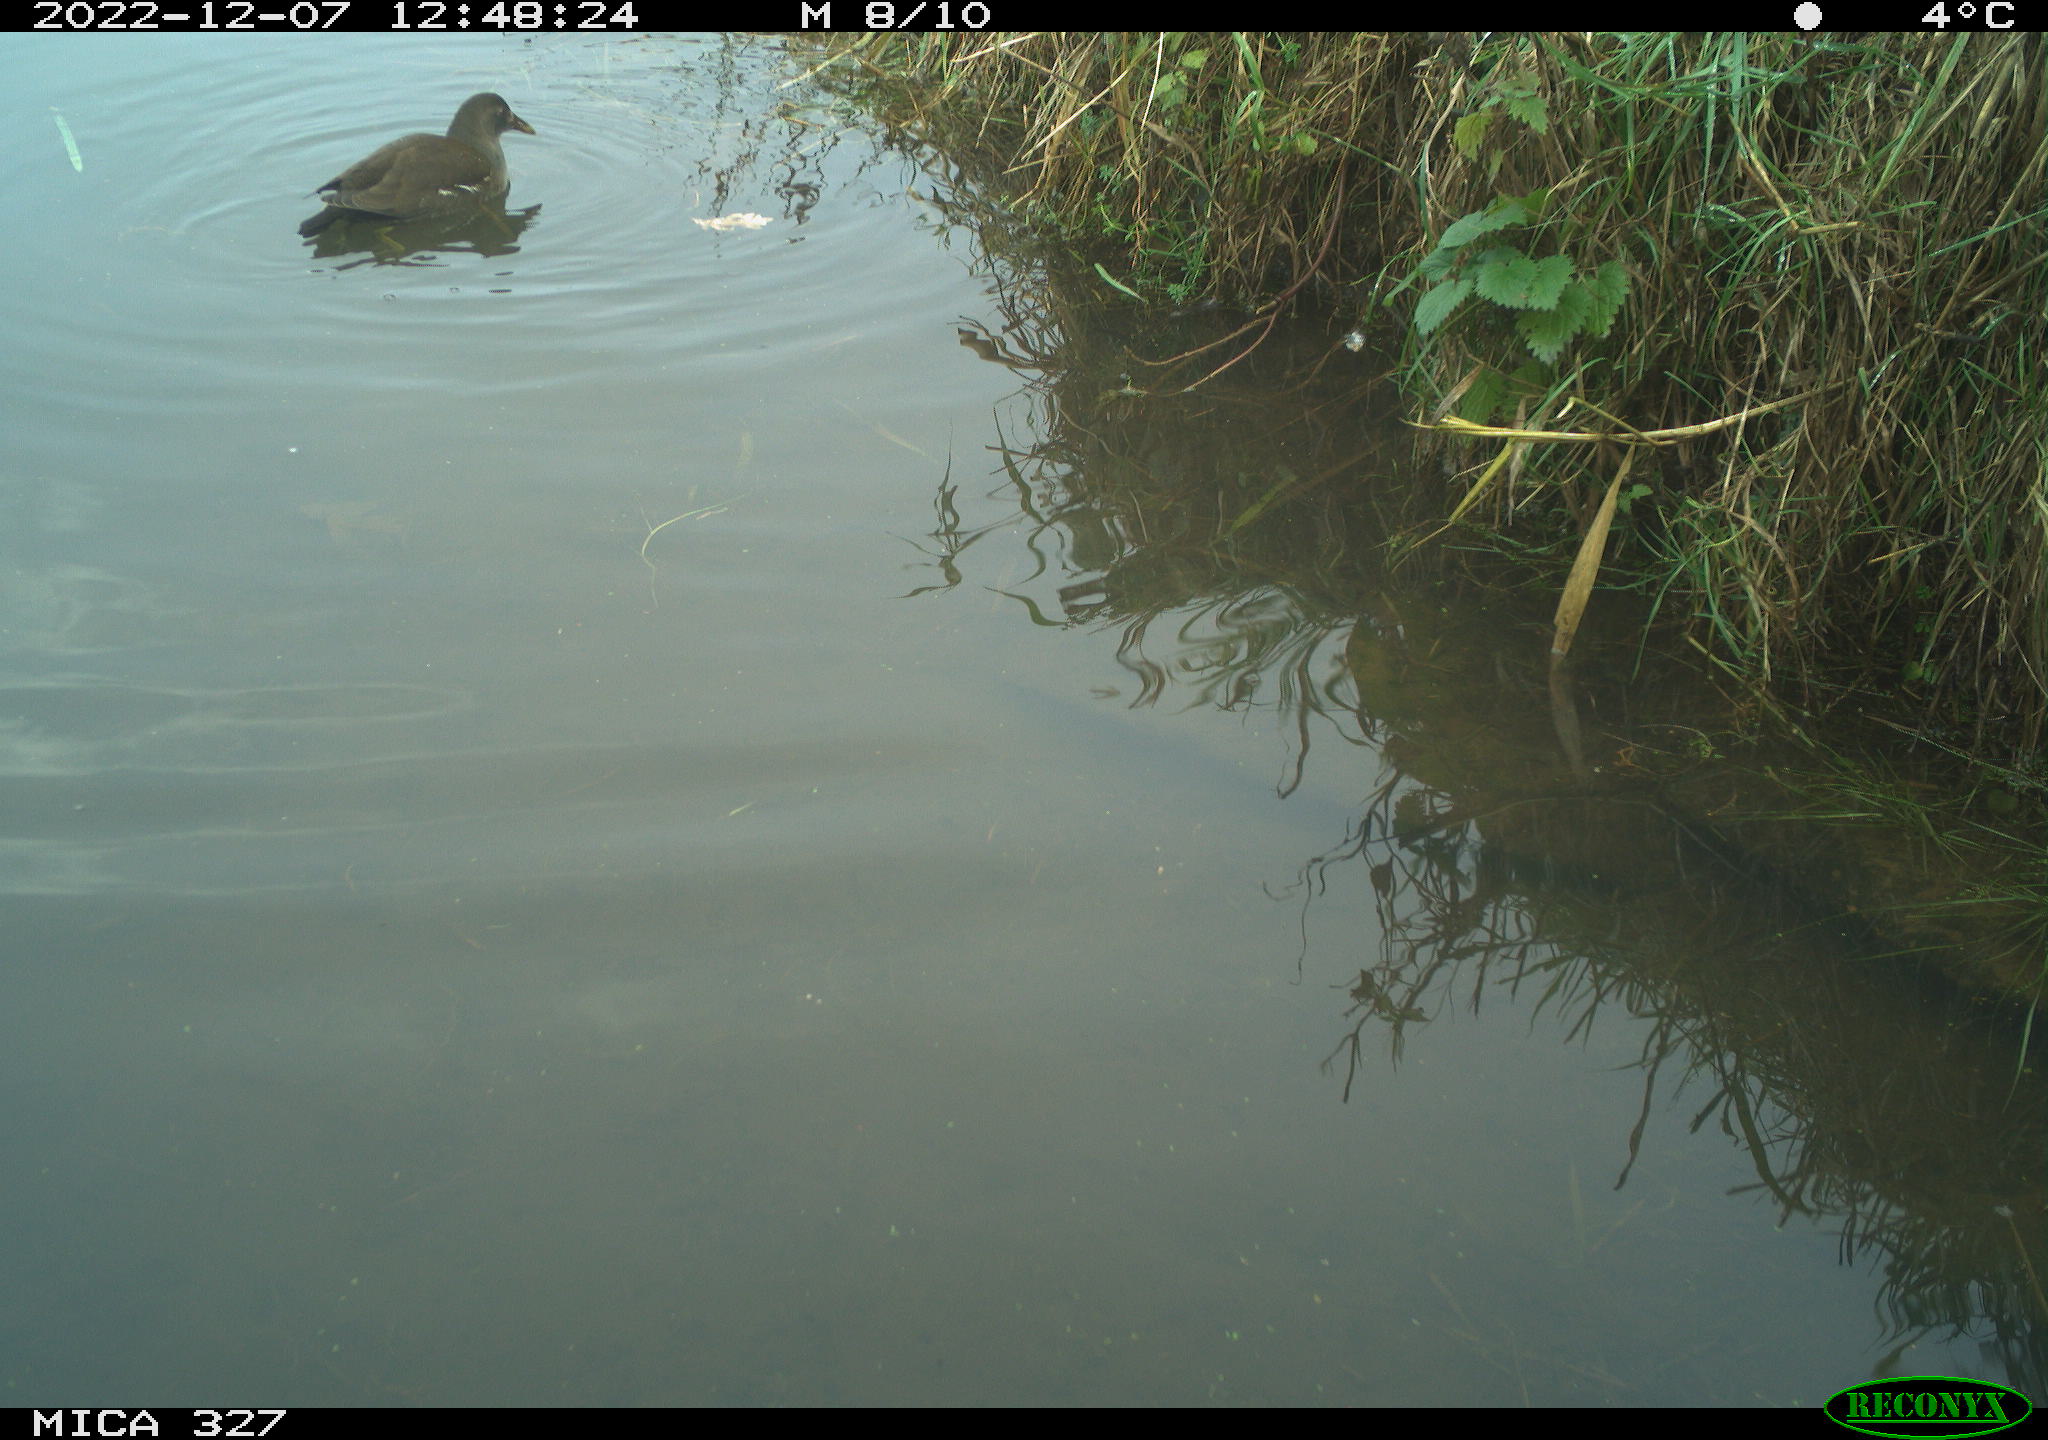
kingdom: Animalia
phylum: Chordata
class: Aves
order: Gruiformes
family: Rallidae
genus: Gallinula
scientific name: Gallinula chloropus
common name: Common moorhen
